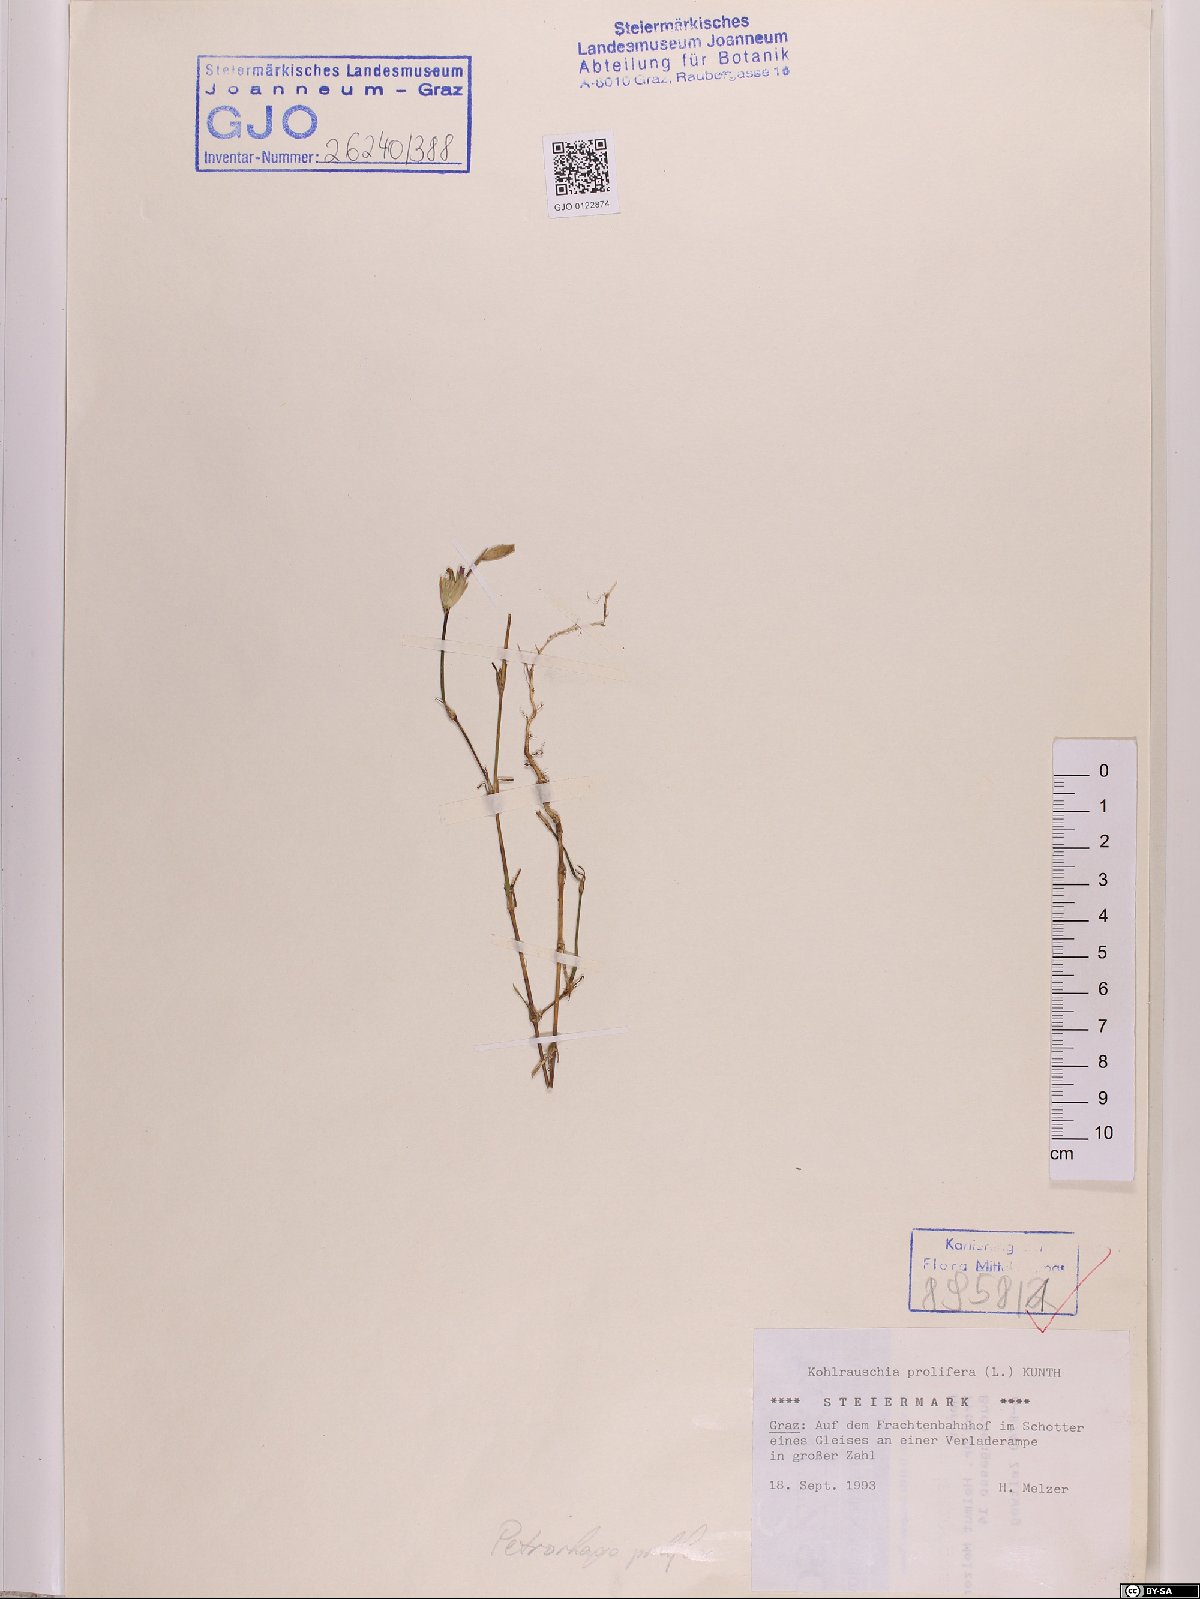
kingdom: Plantae
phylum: Tracheophyta
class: Magnoliopsida
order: Caryophyllales
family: Caryophyllaceae
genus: Petrorhagia
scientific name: Petrorhagia prolifera
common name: Proliferous pink
